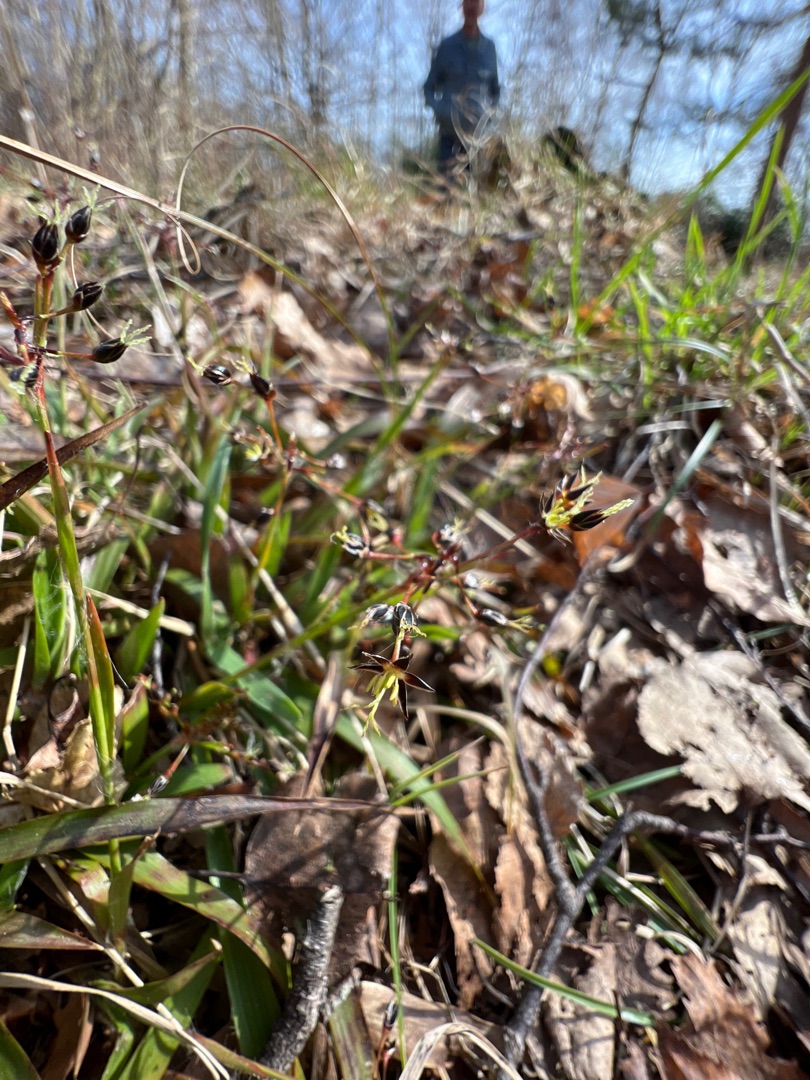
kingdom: Plantae
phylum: Tracheophyta
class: Liliopsida
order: Poales
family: Juncaceae
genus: Luzula
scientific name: Luzula pilosa
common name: Håret frytle
